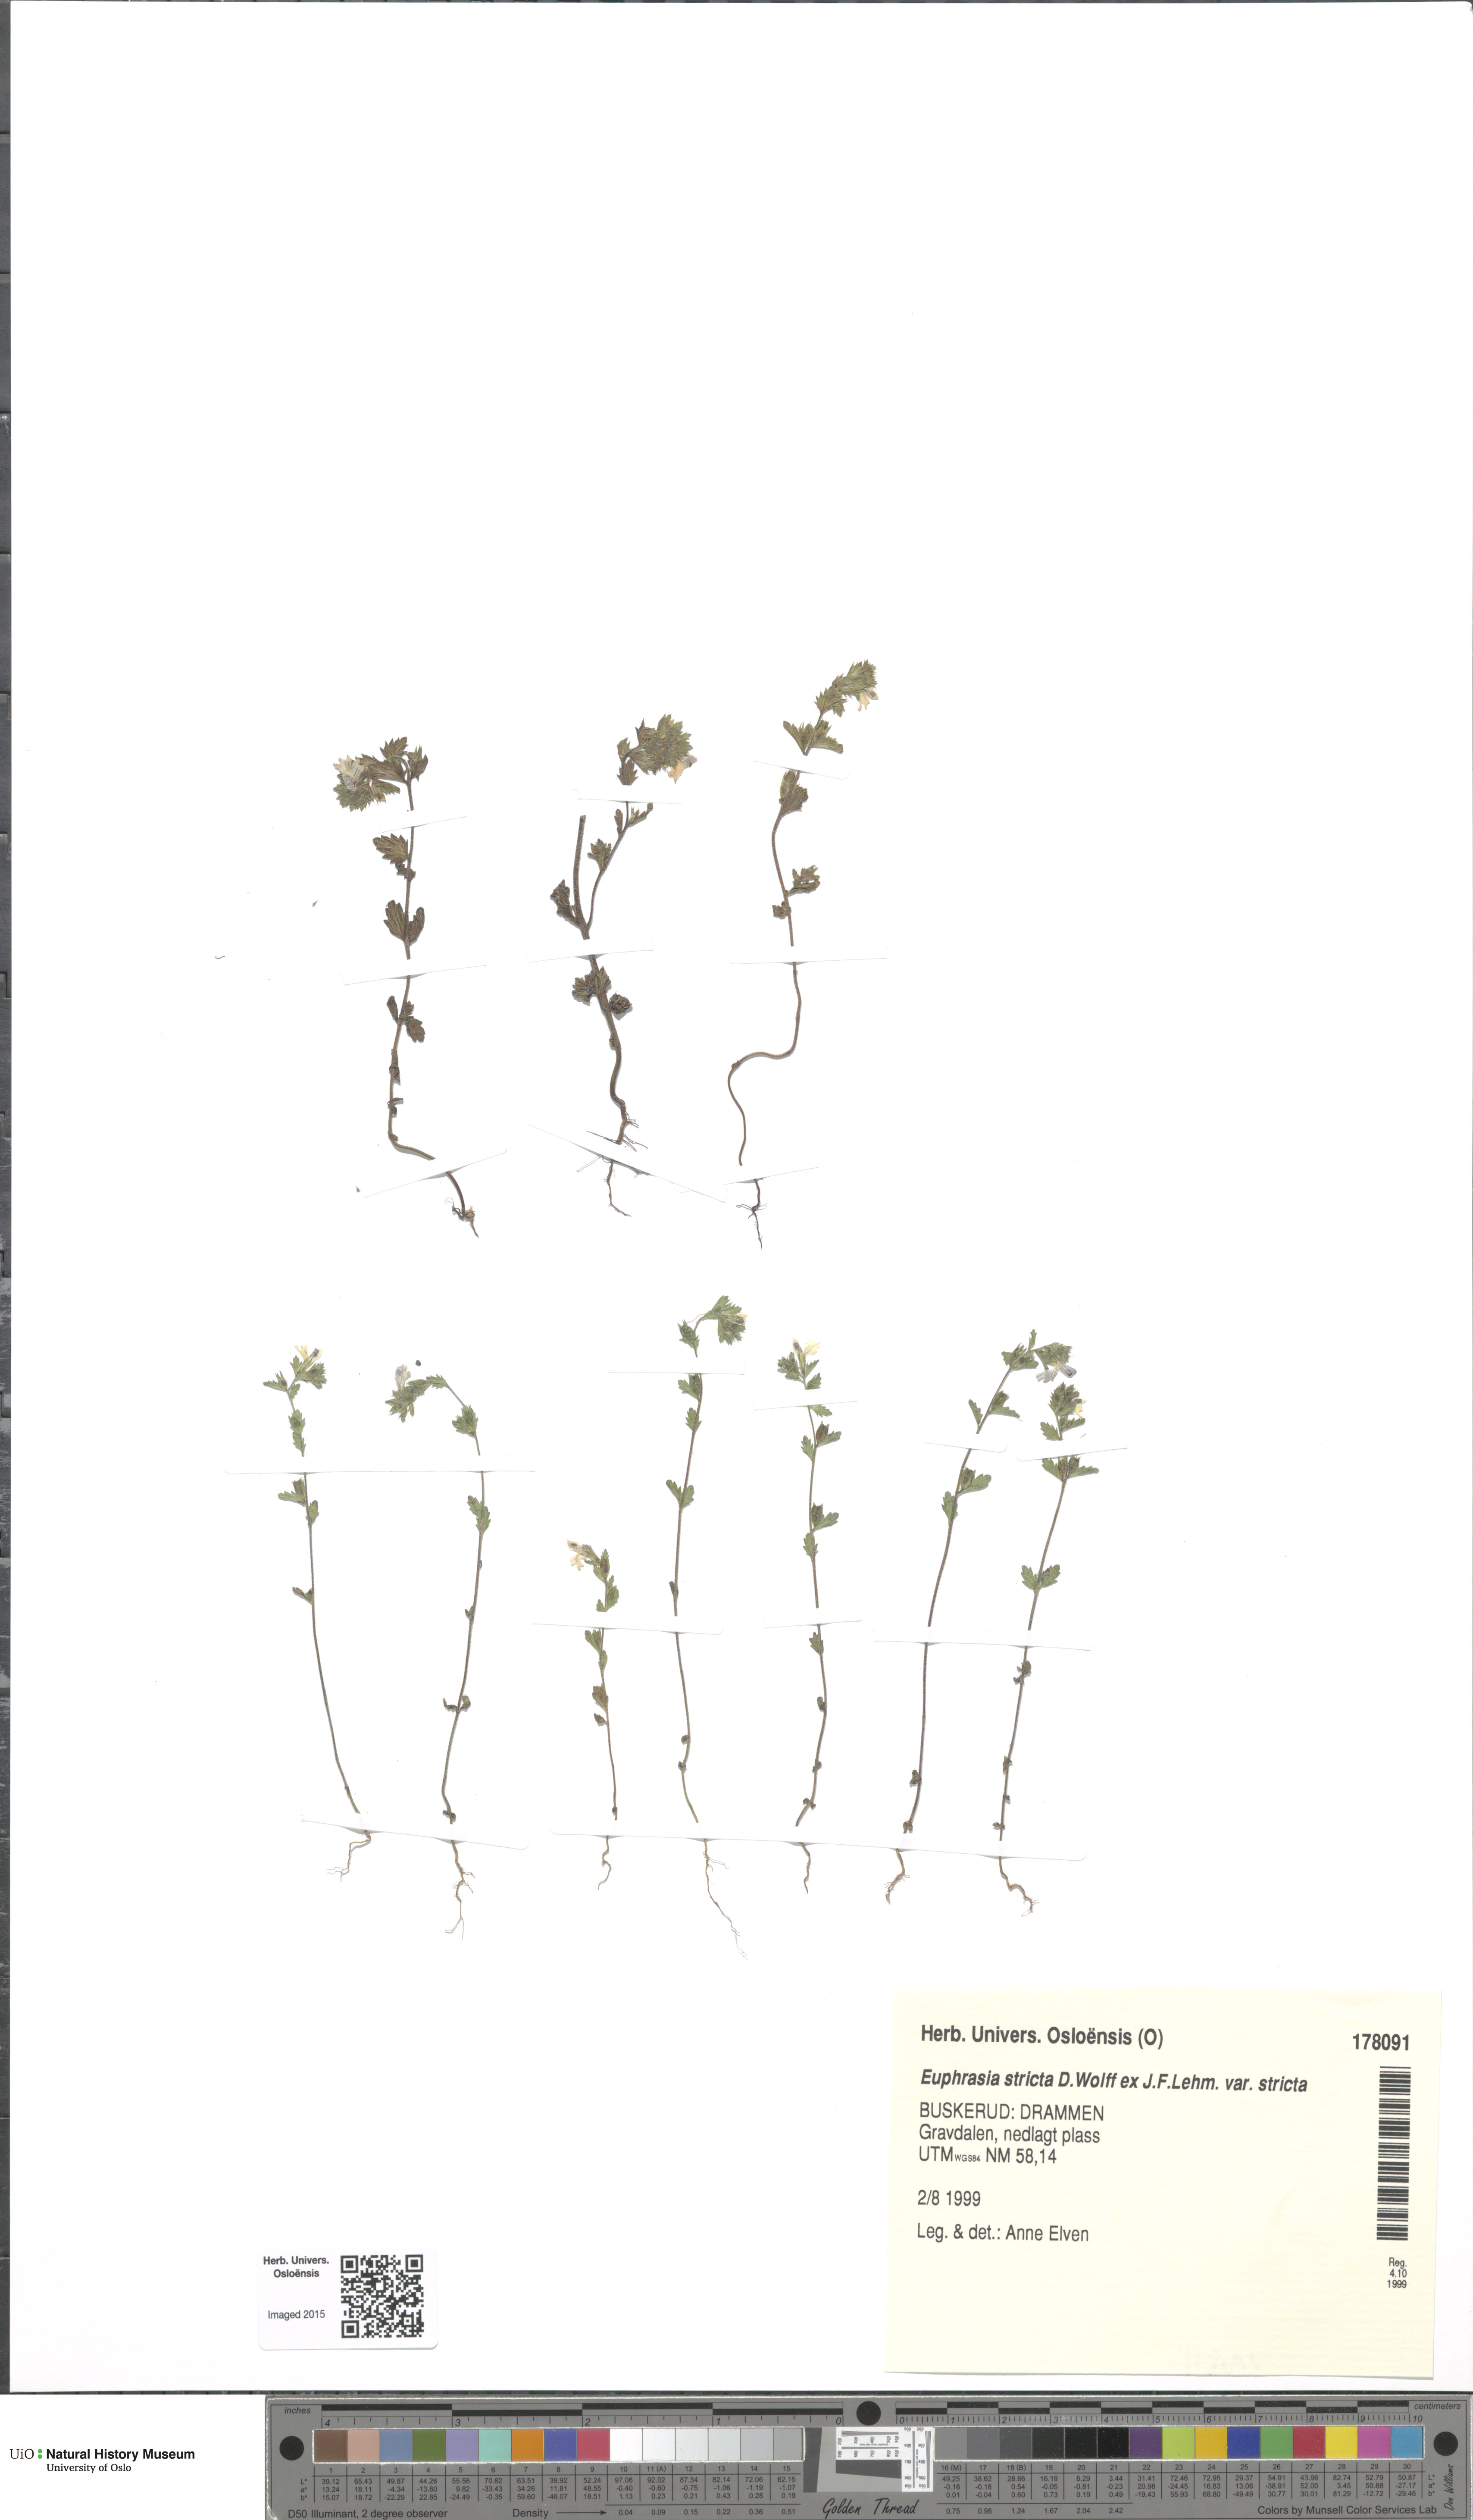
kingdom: Plantae
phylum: Tracheophyta
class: Magnoliopsida
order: Lamiales
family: Orobanchaceae
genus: Euphrasia
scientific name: Euphrasia stricta
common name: Drug eyebright
